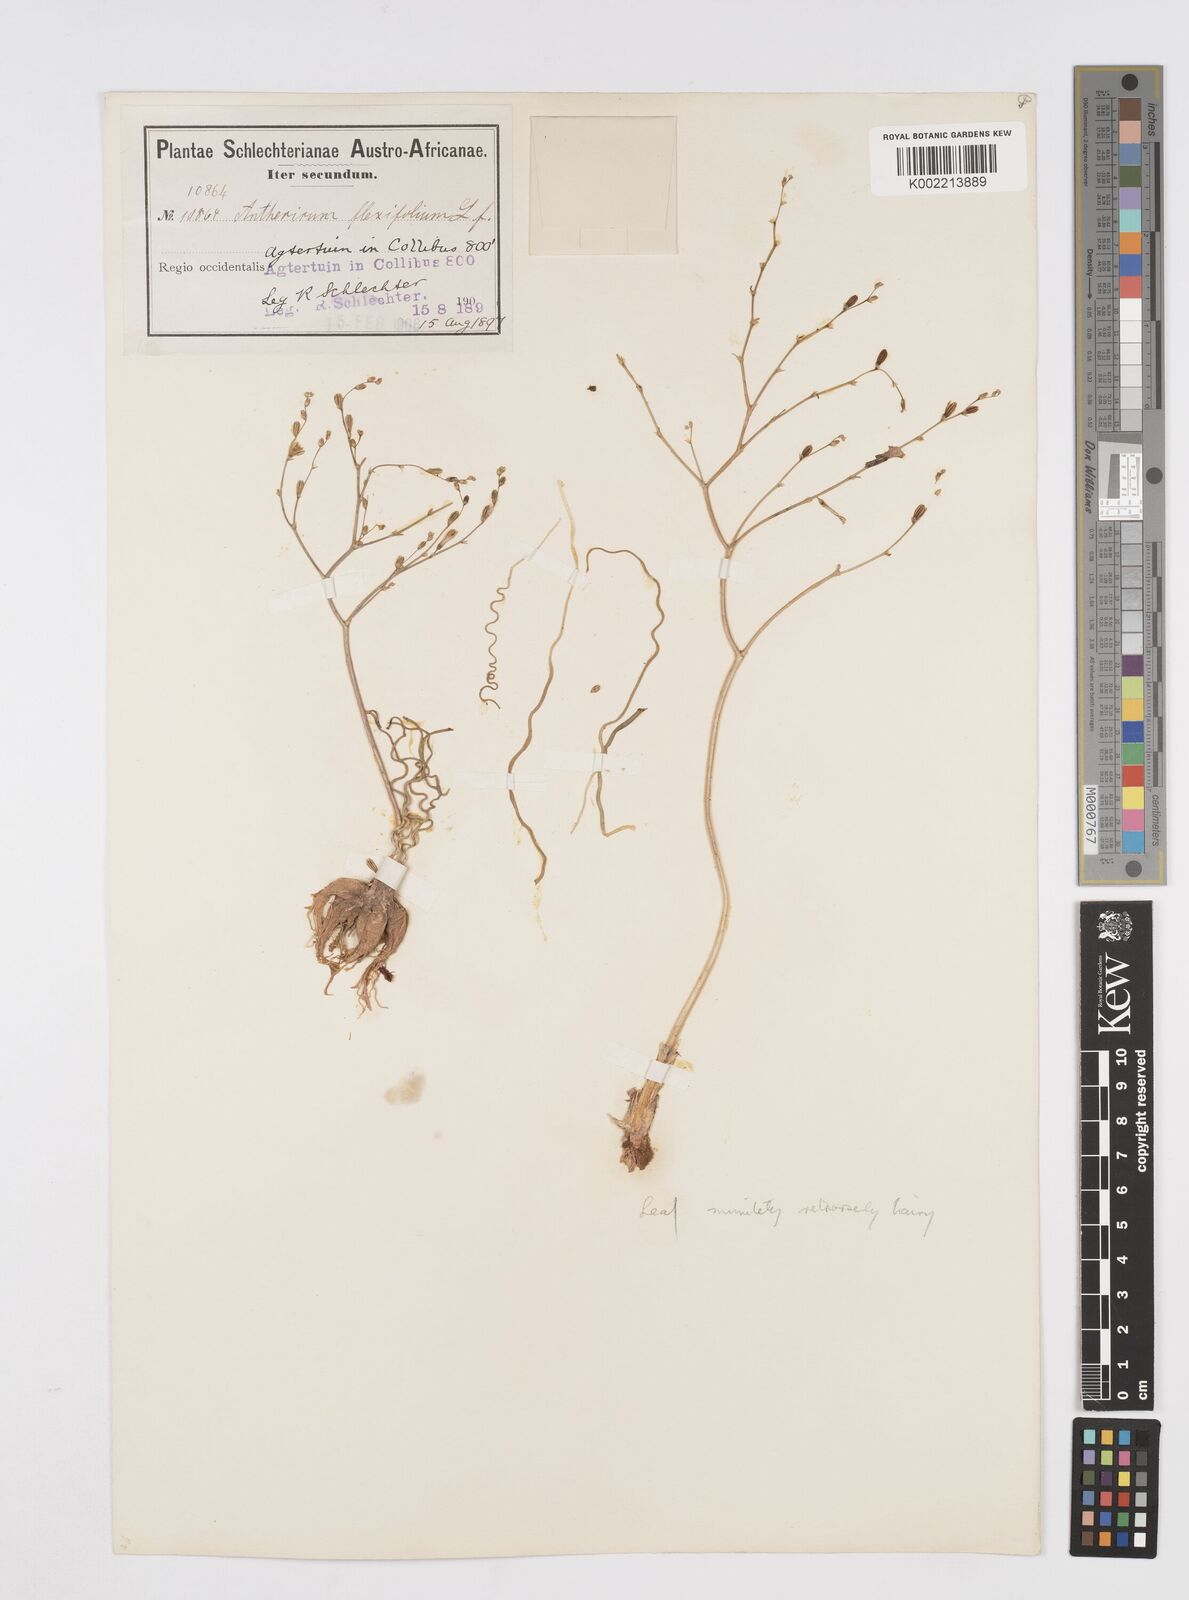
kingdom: Plantae
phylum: Tracheophyta
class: Liliopsida
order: Asparagales
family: Asphodelaceae
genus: Trachyandra
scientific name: Trachyandra flexifolia
